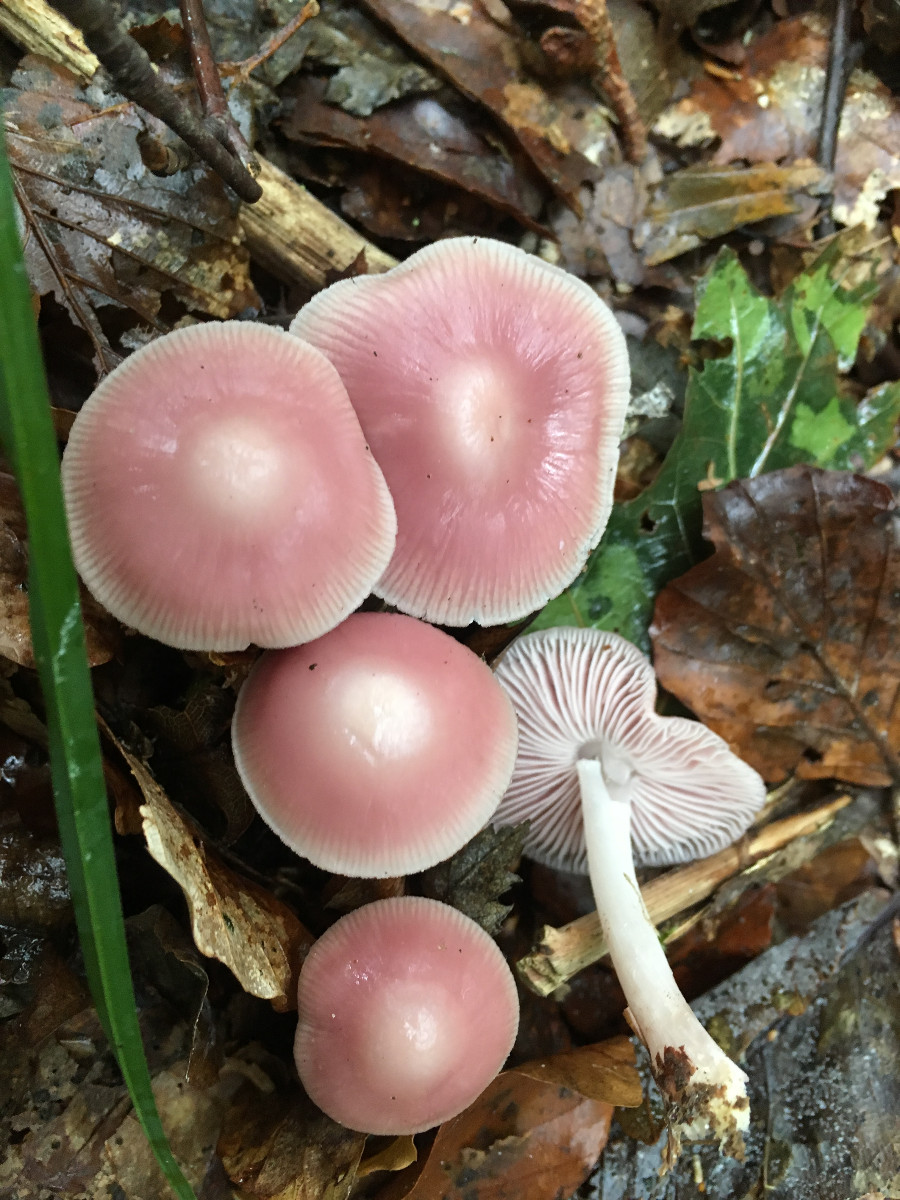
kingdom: Fungi
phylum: Basidiomycota
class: Agaricomycetes
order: Agaricales
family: Mycenaceae
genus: Mycena
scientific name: Mycena rosea
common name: rosa huesvamp
